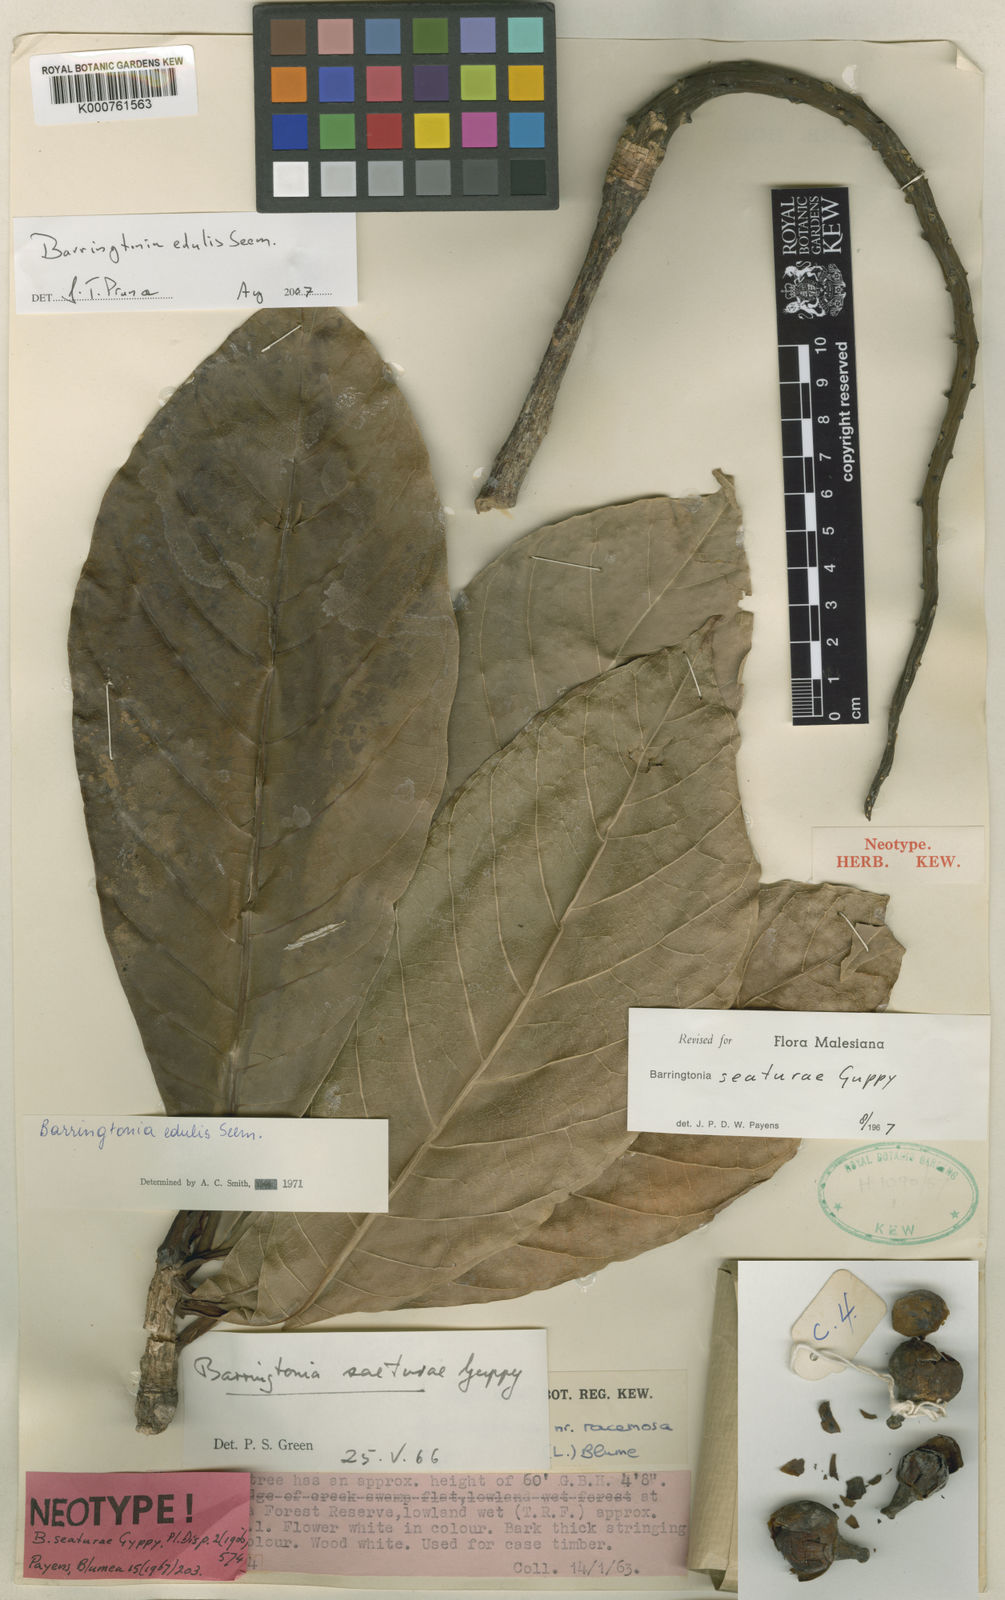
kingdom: Plantae
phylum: Tracheophyta
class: Magnoliopsida
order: Ericales
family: Lecythidaceae
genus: Barringtonia
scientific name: Barringtonia edulis
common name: Cutnut
